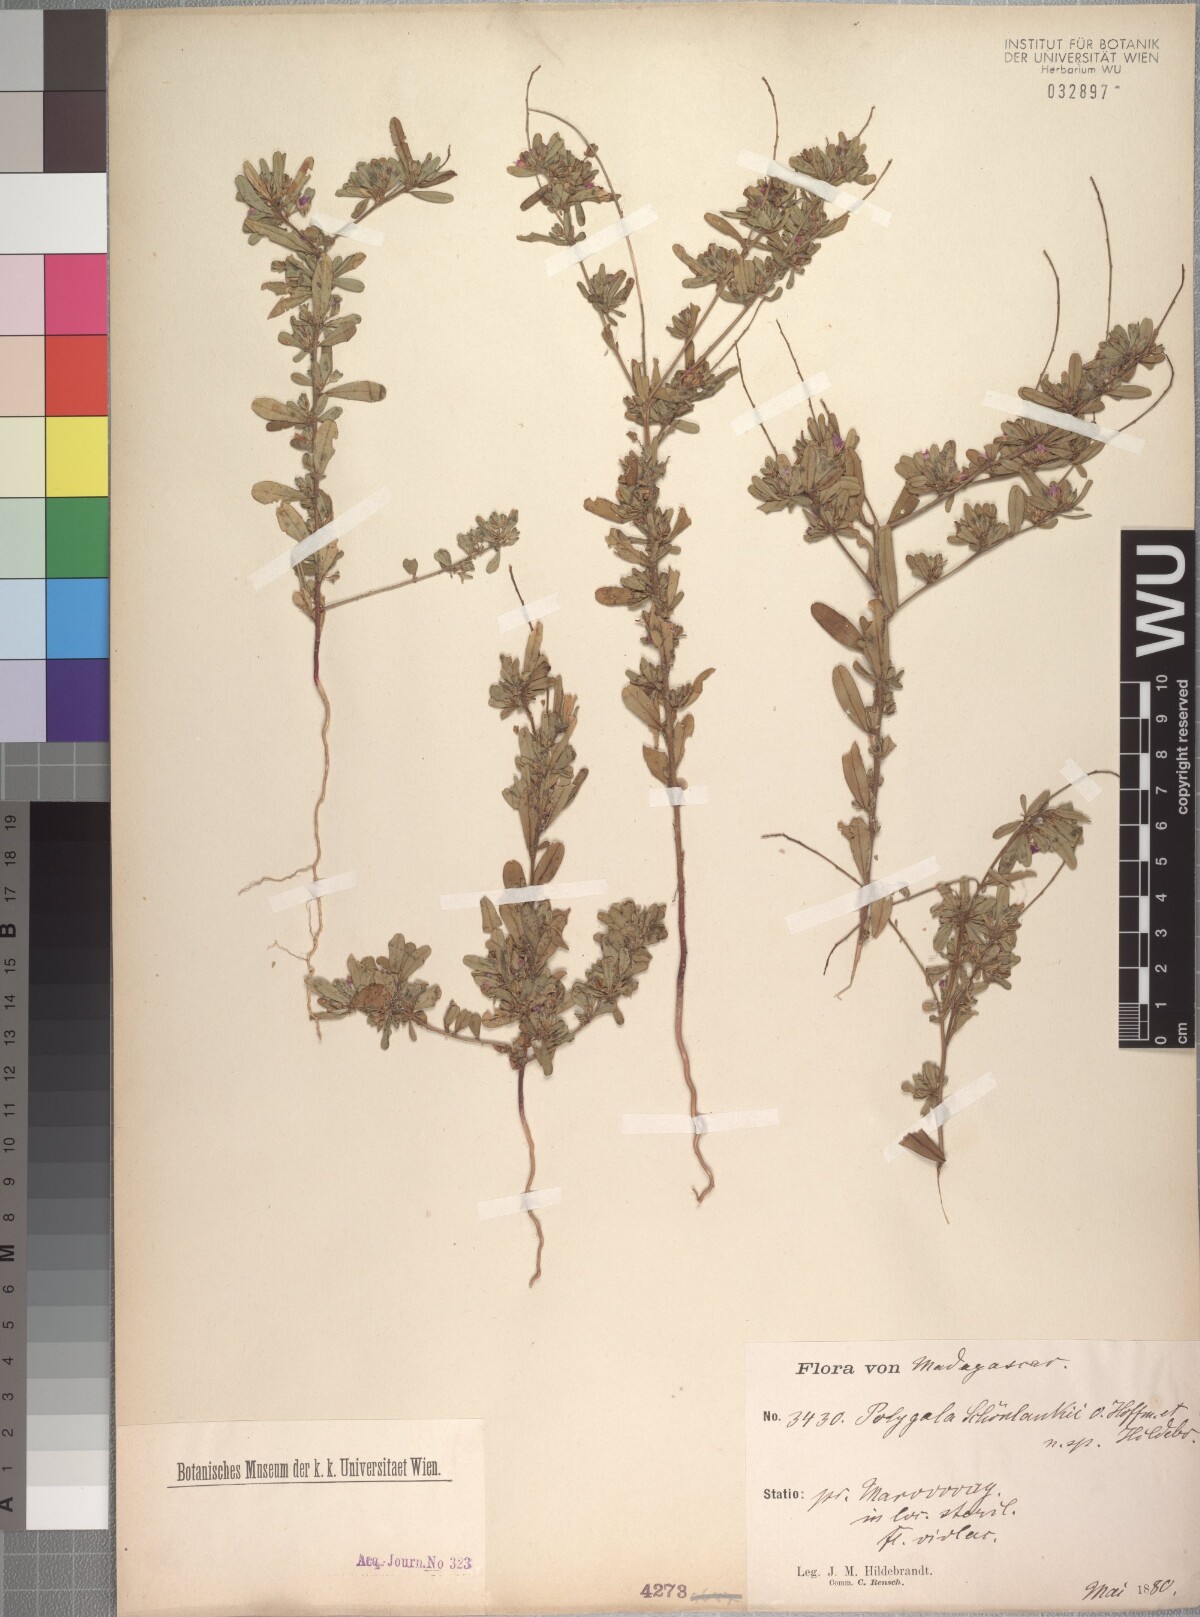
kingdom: Plantae
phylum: Tracheophyta
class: Magnoliopsida
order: Fabales
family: Polygalaceae
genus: Polygala
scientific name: Polygala schoenlankii
